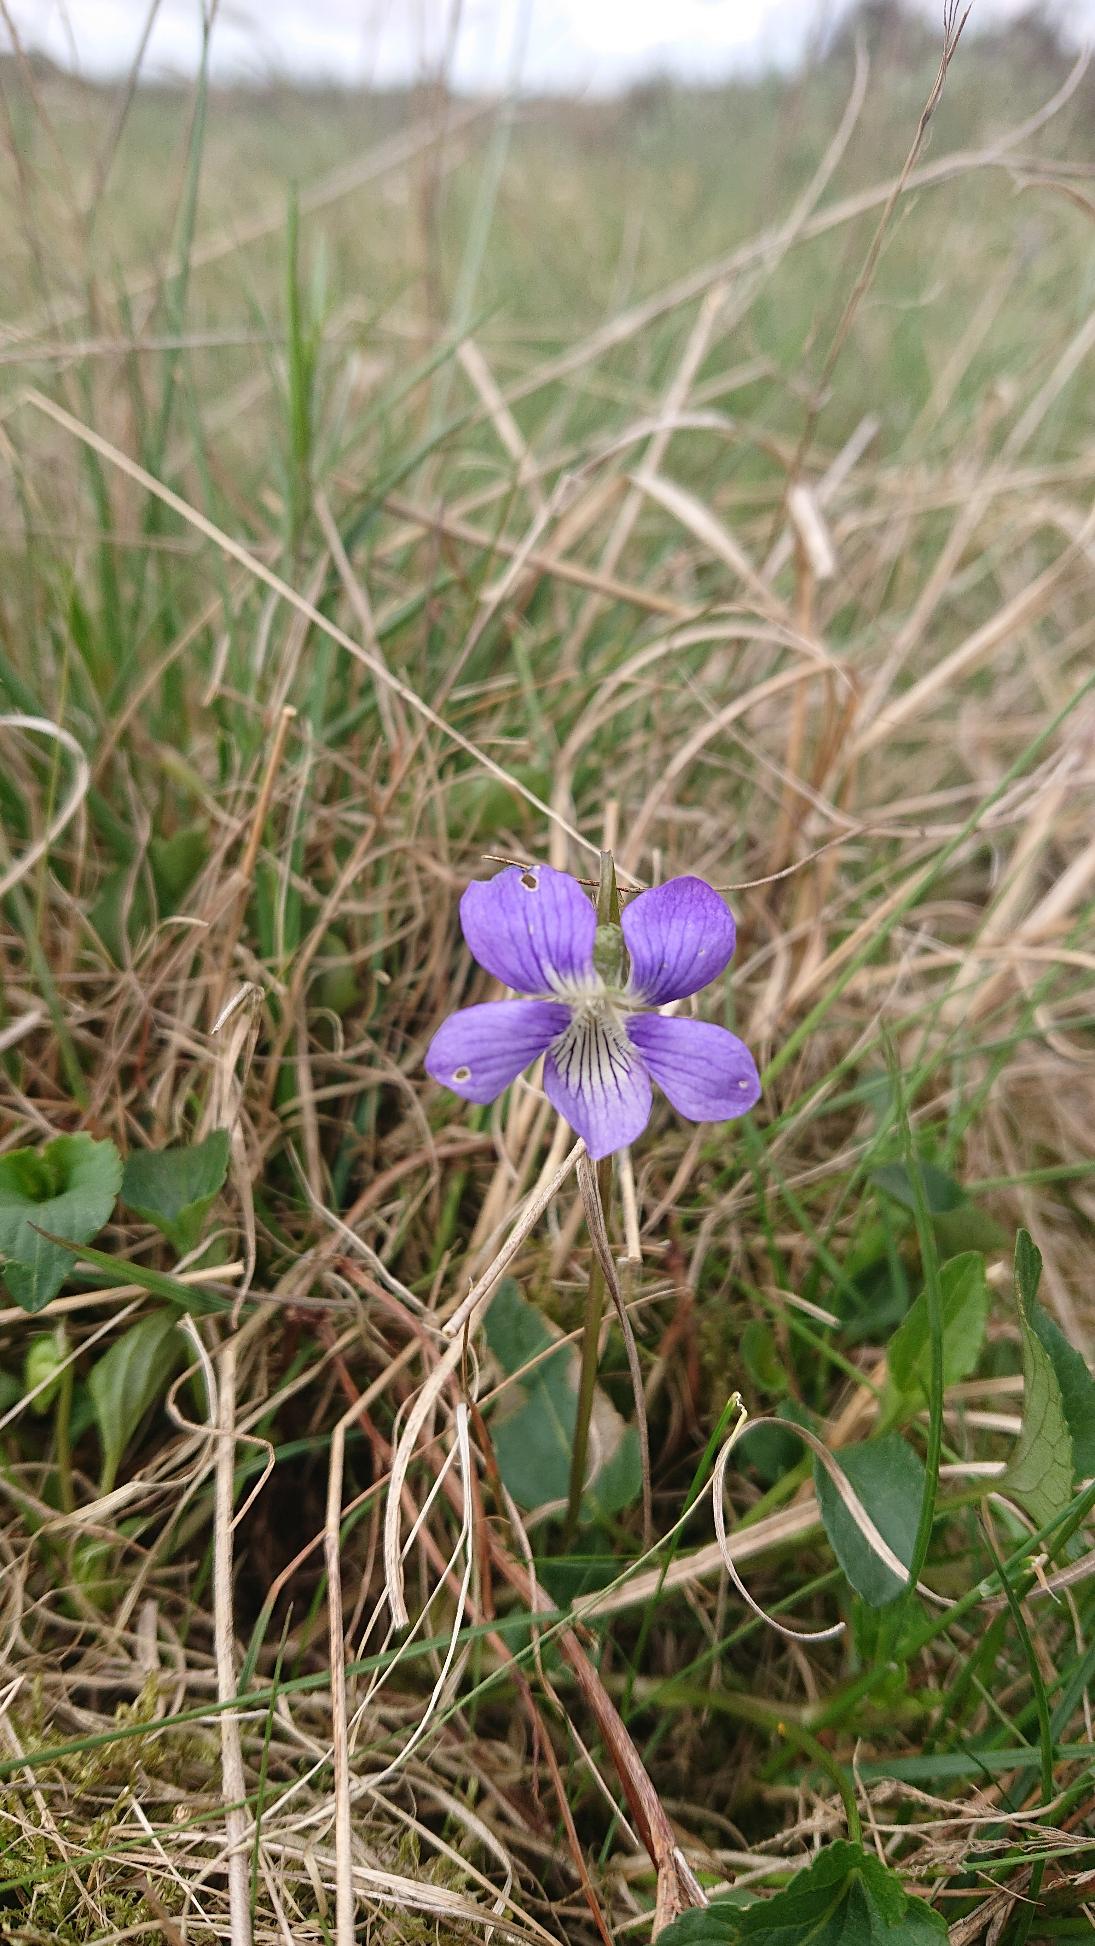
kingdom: Plantae
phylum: Tracheophyta
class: Magnoliopsida
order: Malpighiales
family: Violaceae
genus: Viola
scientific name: Viola canina
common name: Hunde-viol
